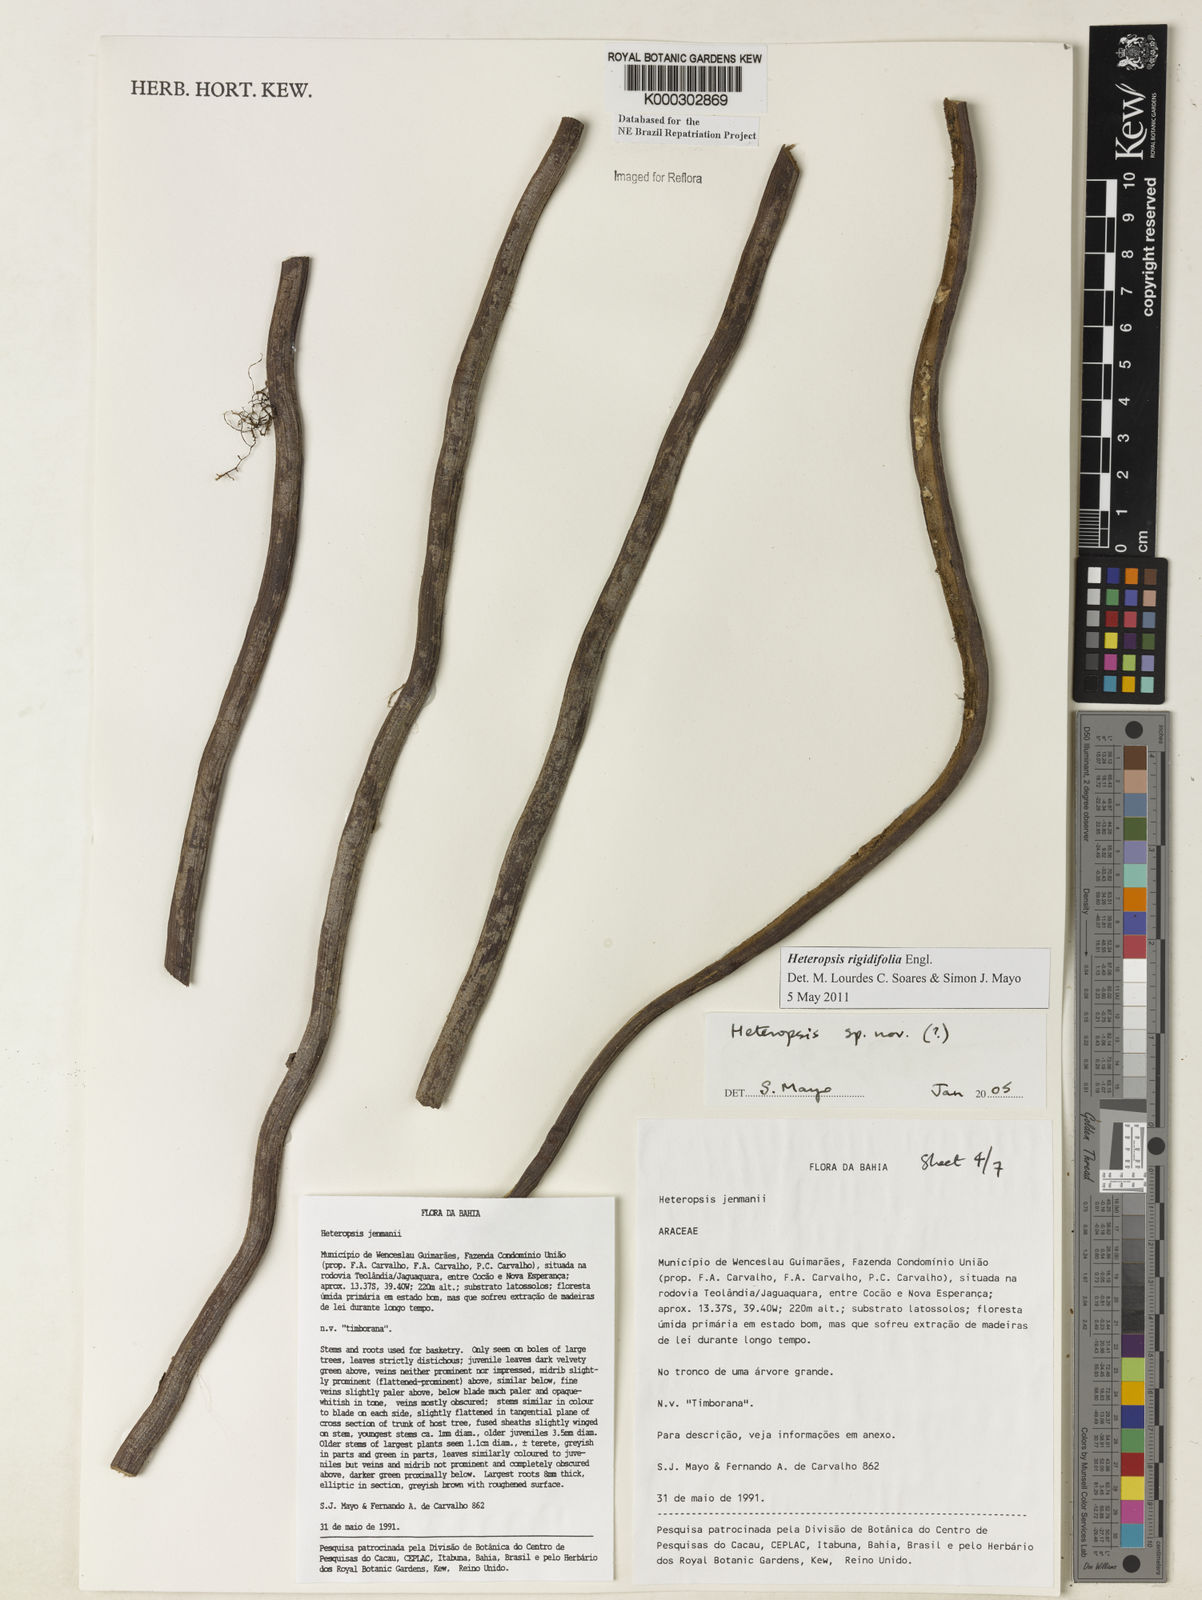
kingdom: Plantae
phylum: Tracheophyta
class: Liliopsida
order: Alismatales
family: Araceae
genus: Heteropsis
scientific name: Heteropsis
